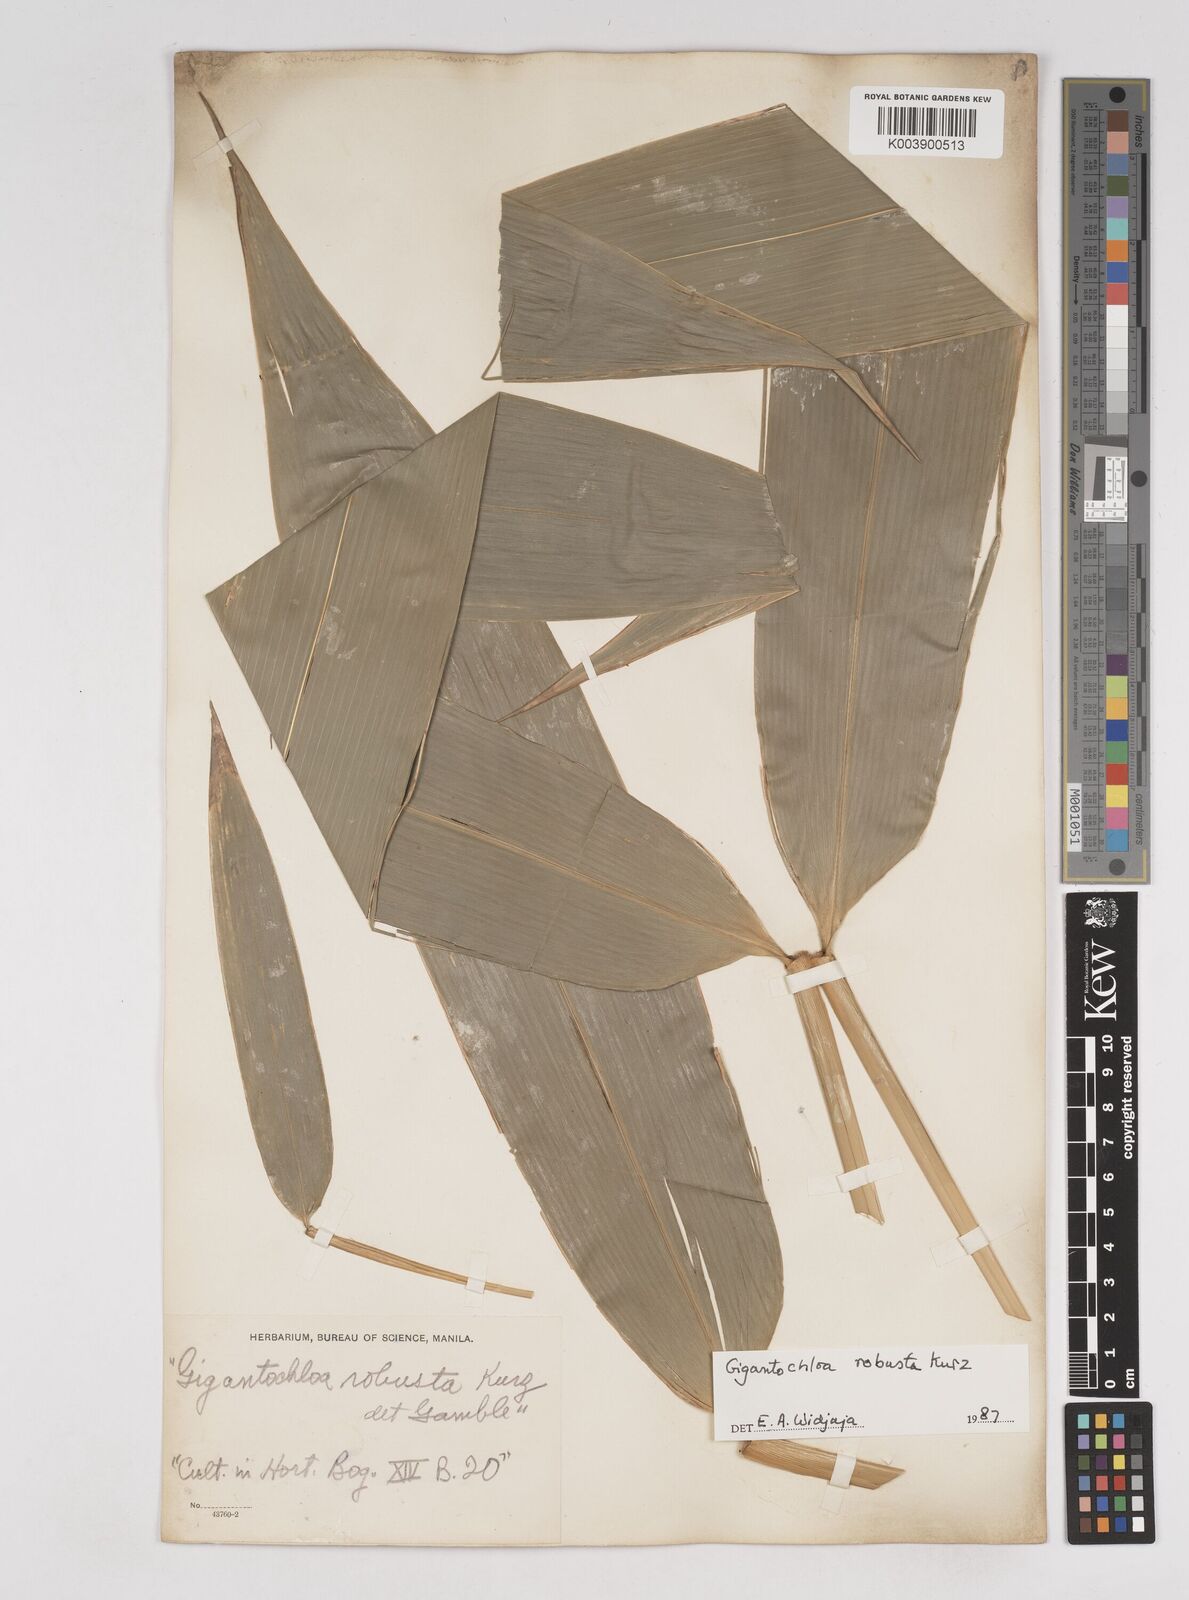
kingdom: Plantae
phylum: Tracheophyta
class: Liliopsida
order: Poales
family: Poaceae
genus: Gigantochloa
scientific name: Gigantochloa robusta
